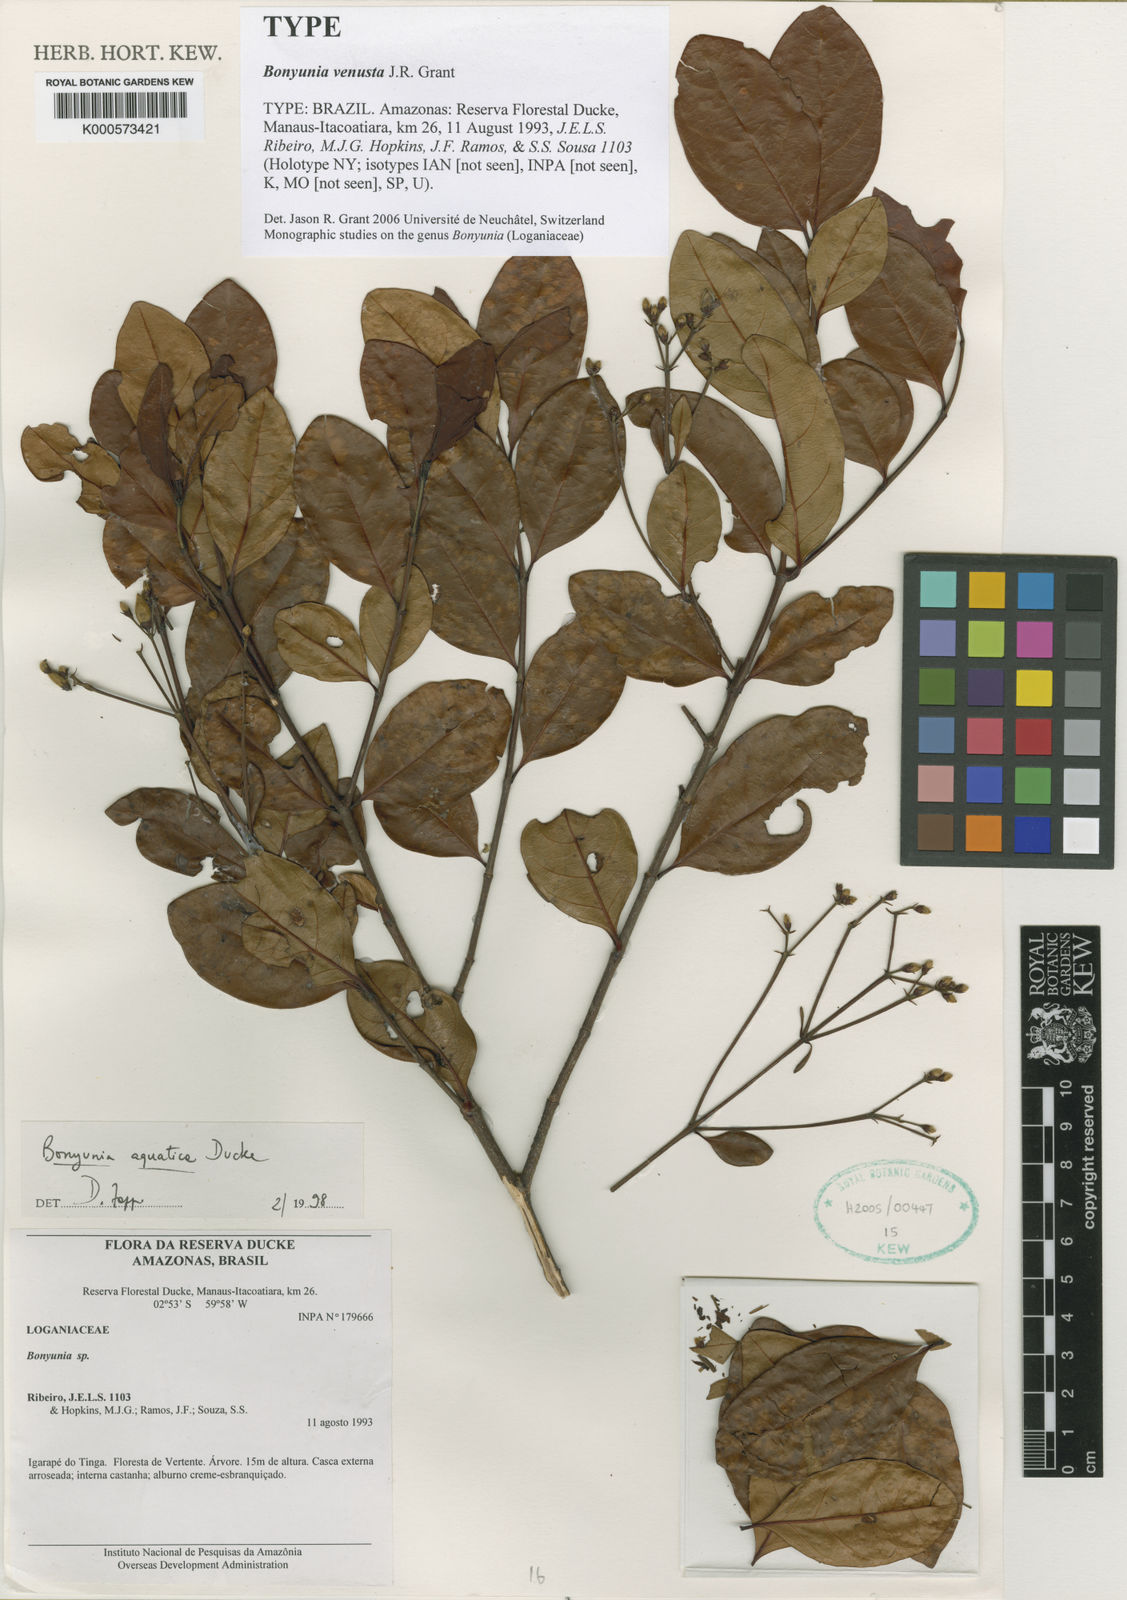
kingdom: Plantae
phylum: Tracheophyta
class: Magnoliopsida
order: Gentianales
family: Loganiaceae
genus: Bonyunia
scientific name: Bonyunia venusta
